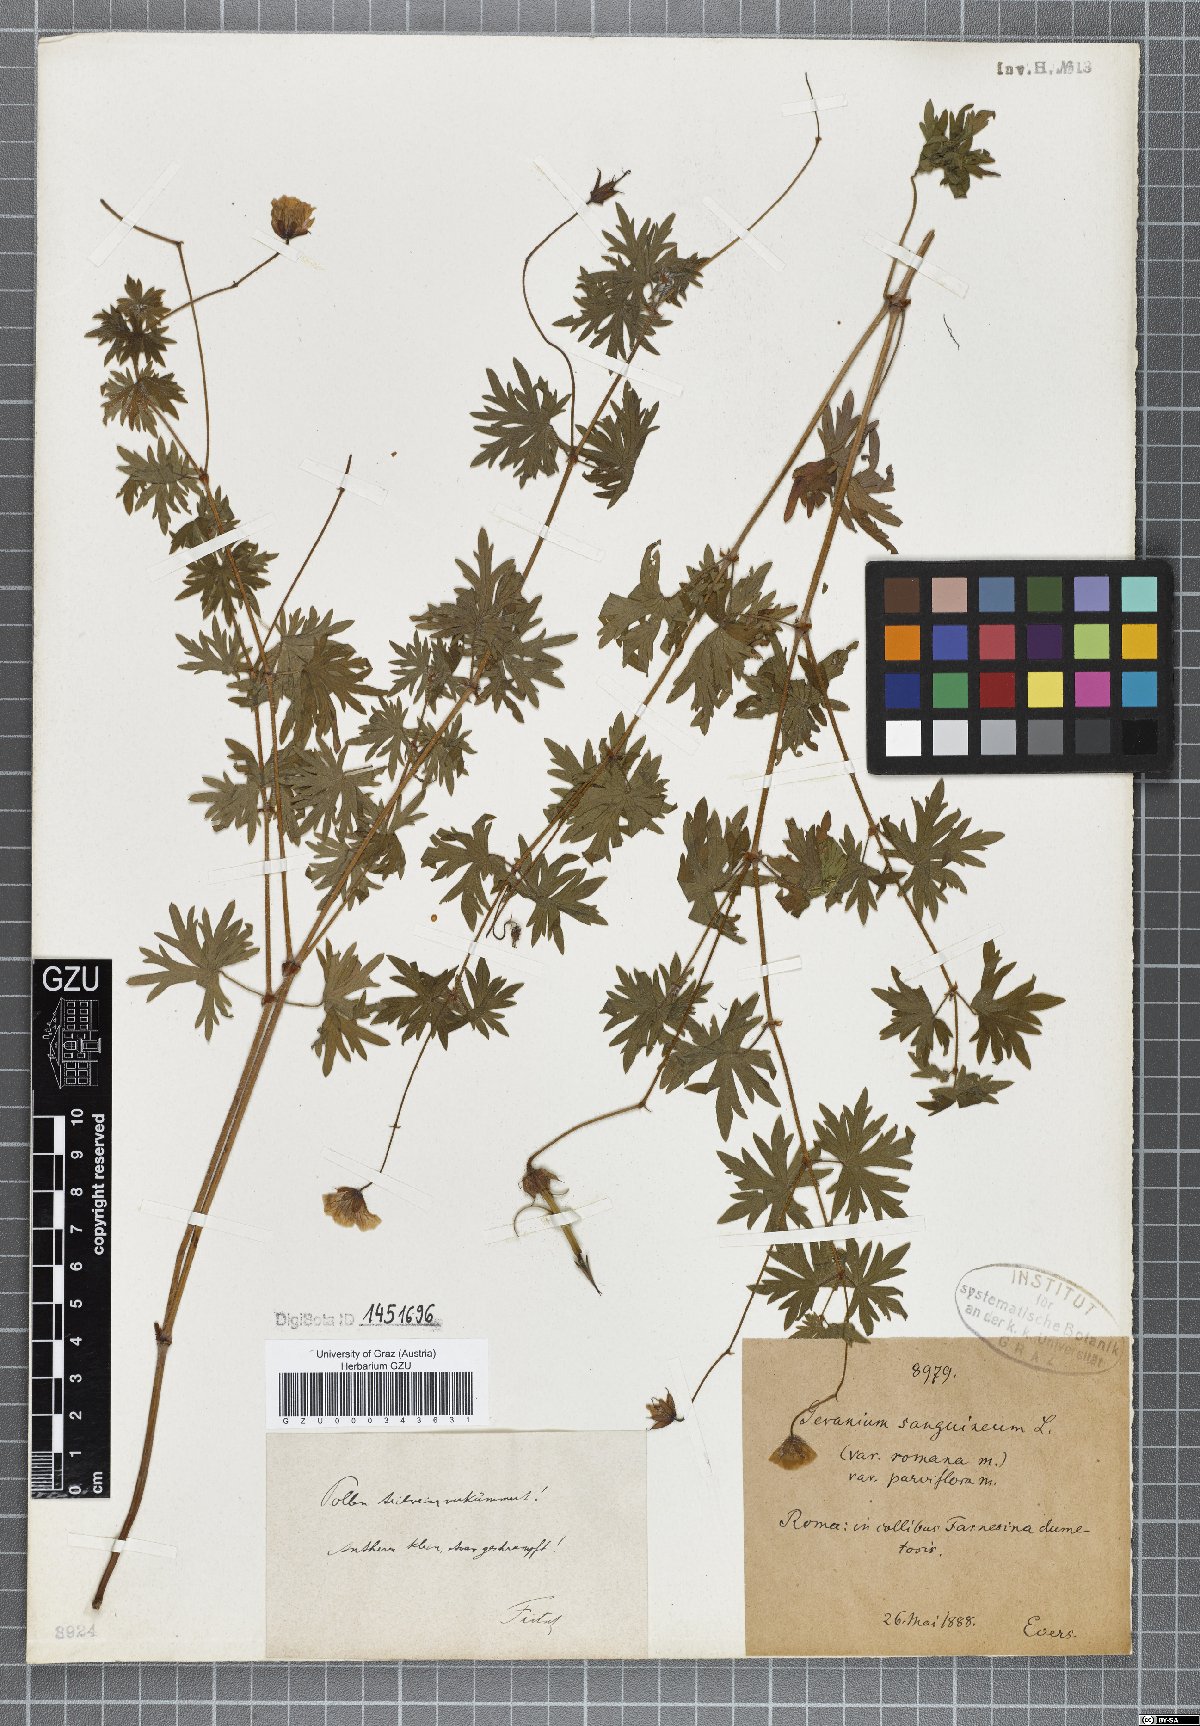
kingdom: Plantae
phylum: Tracheophyta
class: Magnoliopsida
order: Geraniales
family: Geraniaceae
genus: Geranium
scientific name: Geranium sanguineum
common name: Bloody crane's-bill
